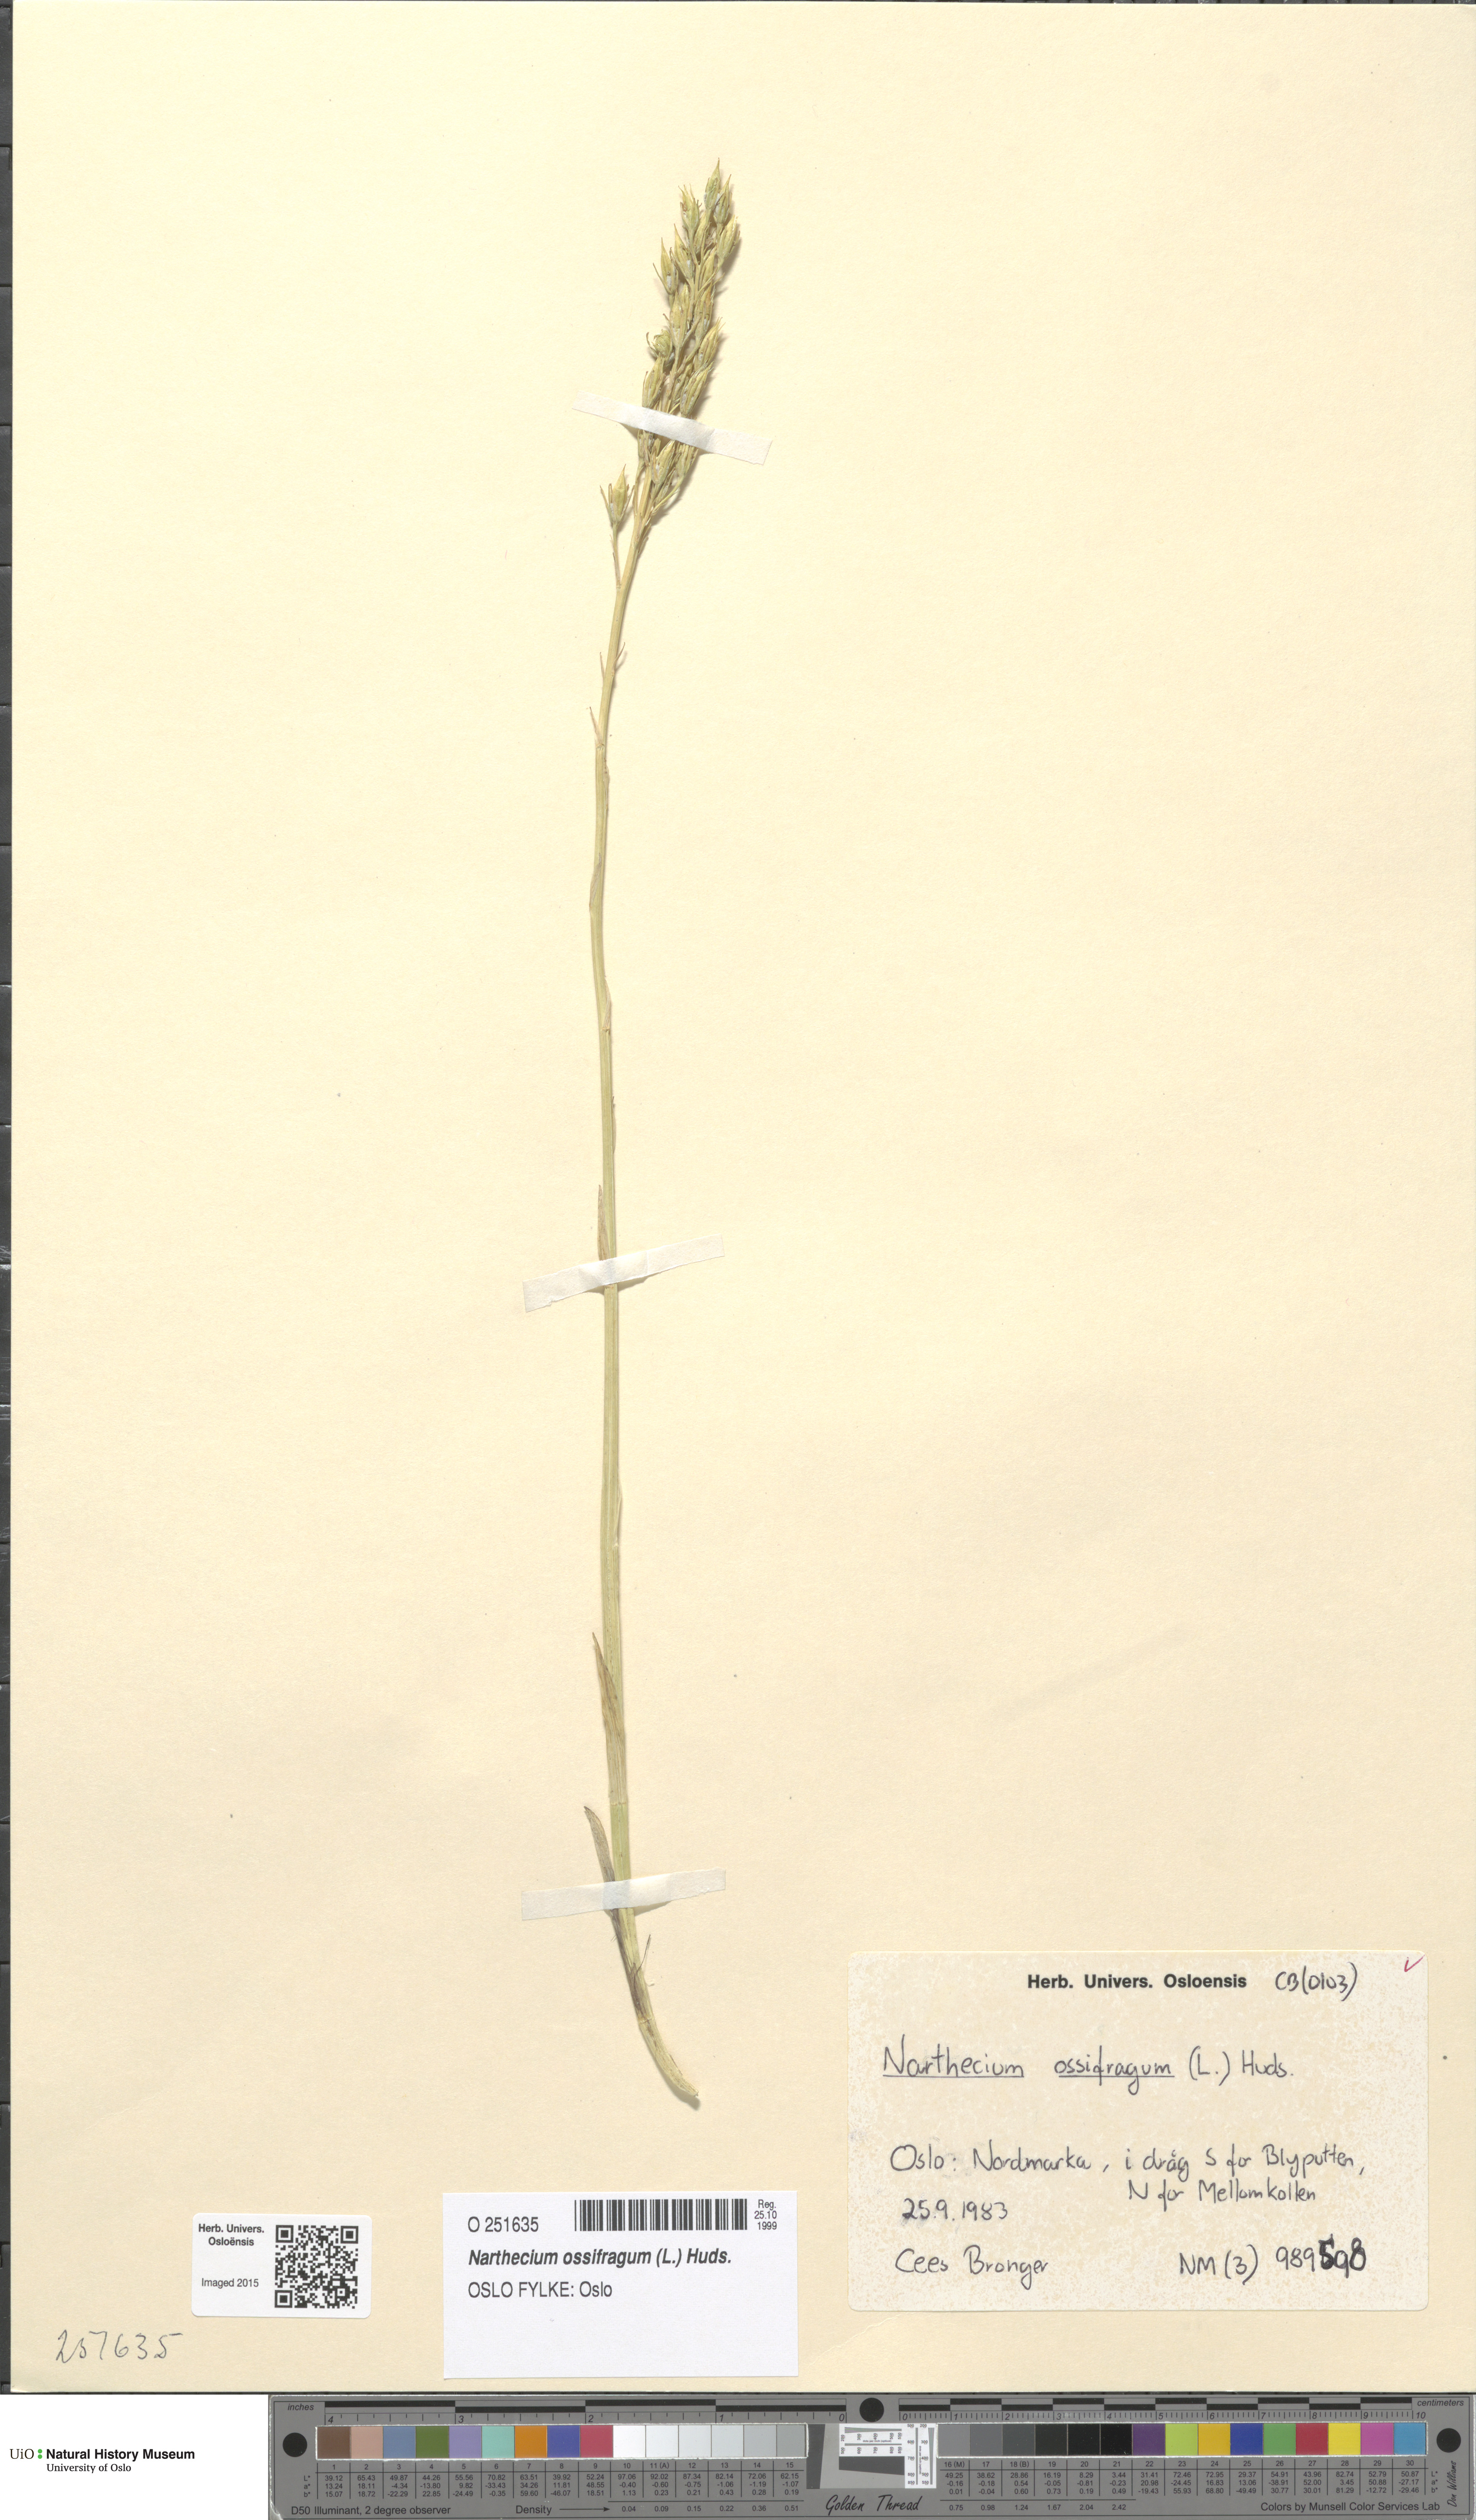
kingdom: Plantae
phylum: Tracheophyta
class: Liliopsida
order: Dioscoreales
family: Nartheciaceae
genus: Narthecium
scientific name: Narthecium ossifragum
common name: Bog asphodel
